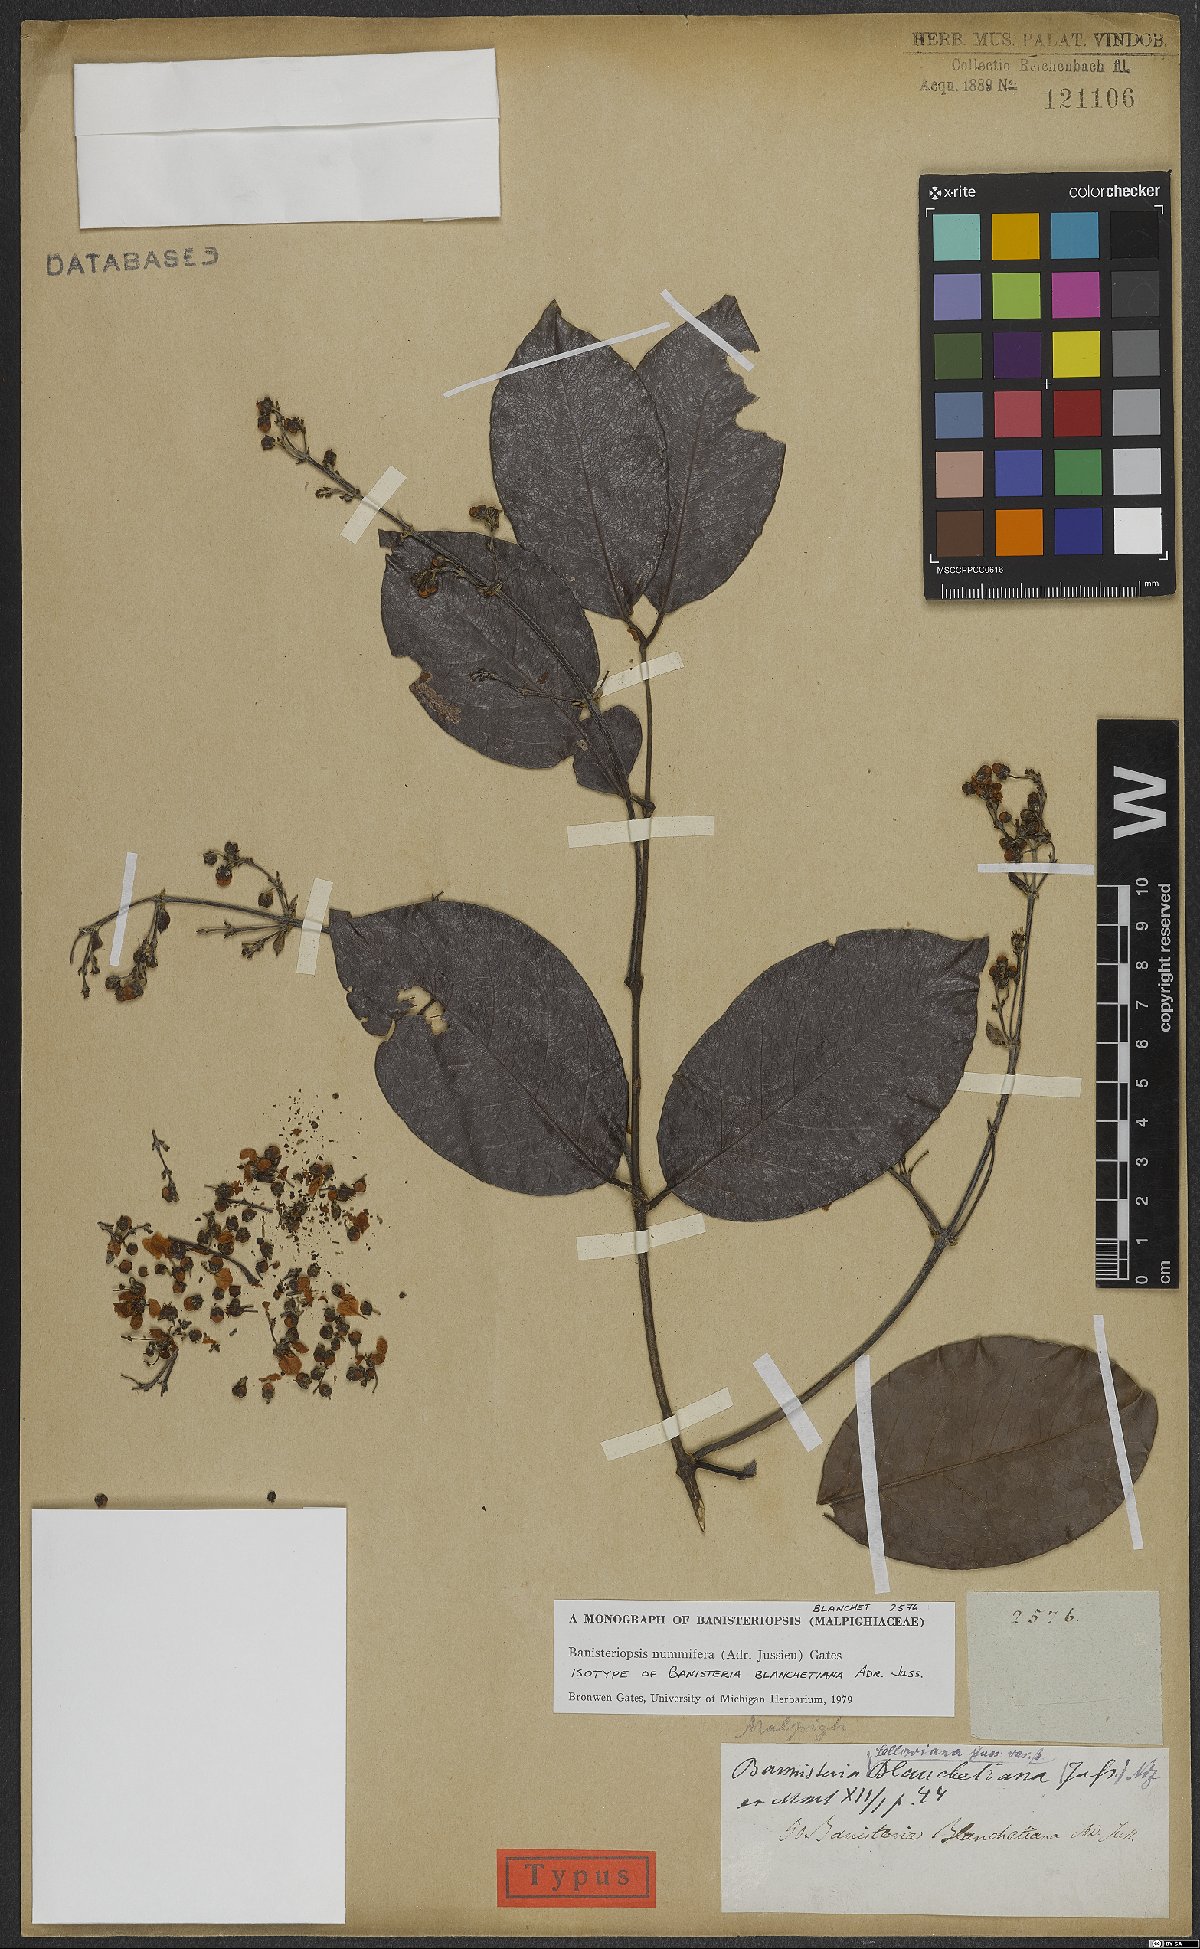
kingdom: Plantae
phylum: Tracheophyta
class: Magnoliopsida
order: Malpighiales
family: Malpighiaceae
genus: Banisteriopsis
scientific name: Banisteriopsis nummifera
